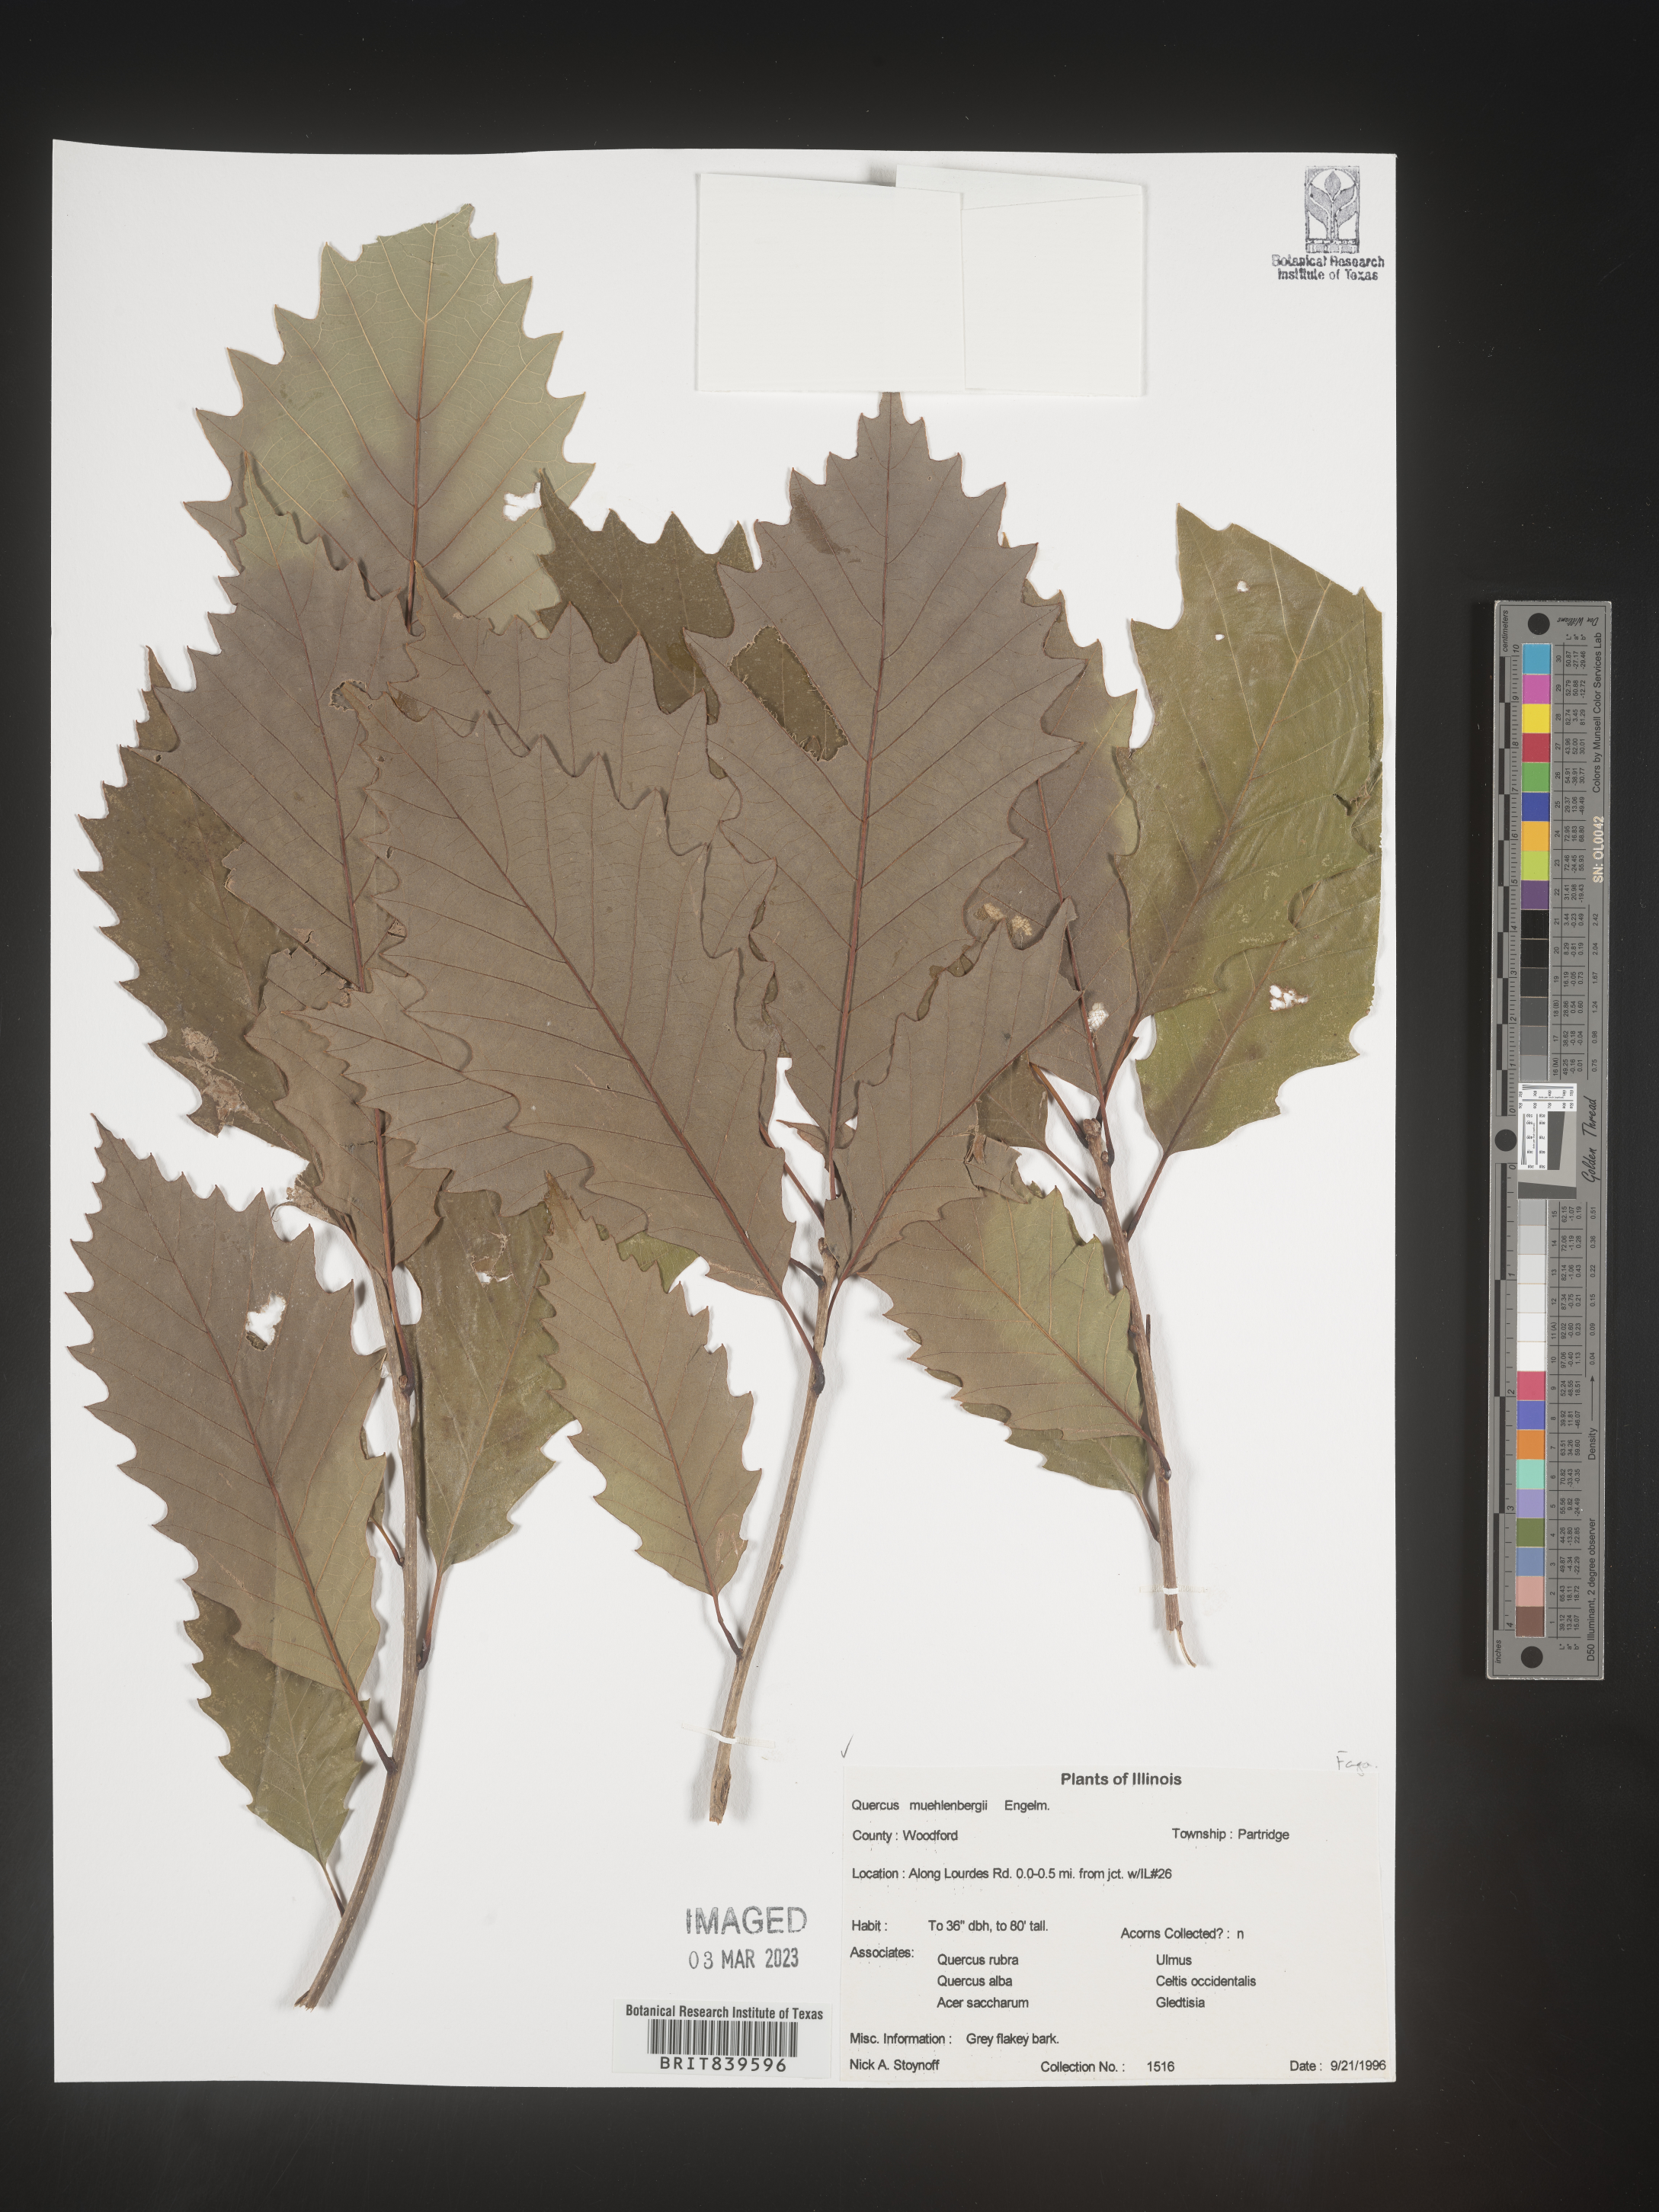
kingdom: Plantae
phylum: Tracheophyta
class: Magnoliopsida
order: Fagales
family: Fagaceae
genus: Quercus
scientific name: Quercus muehlenbergii
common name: Chinkapin oak
